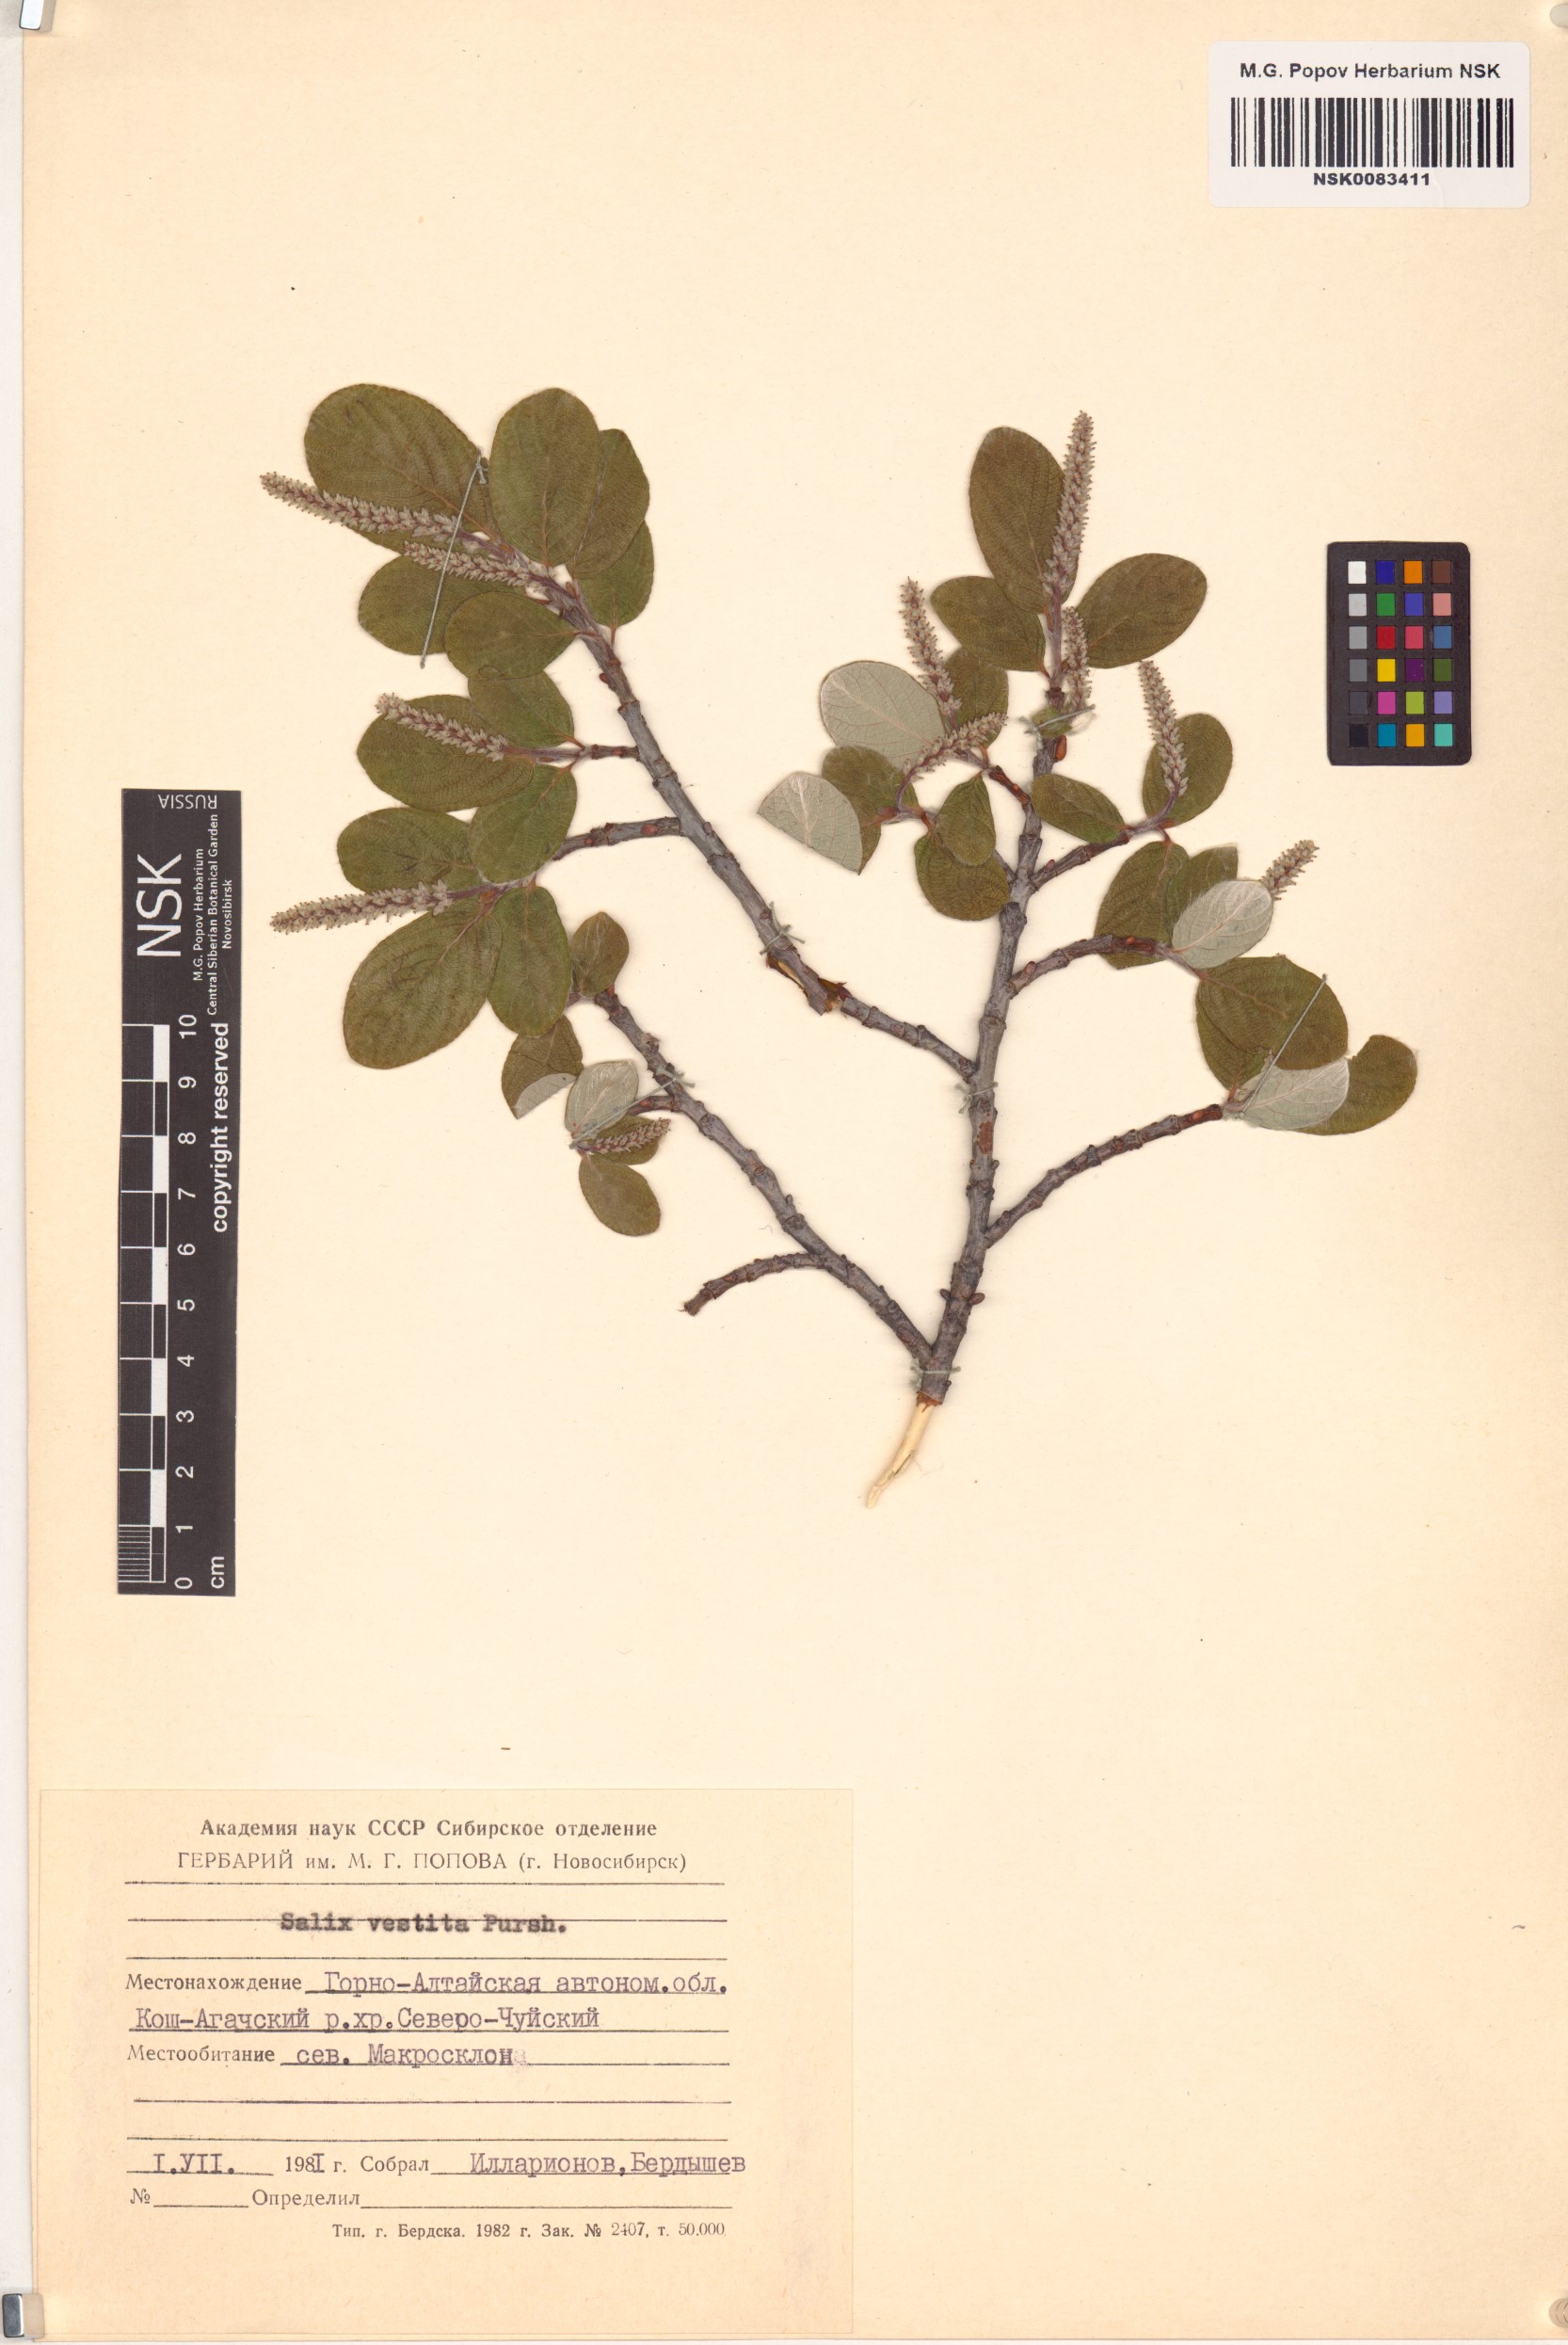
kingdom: Plantae
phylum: Tracheophyta
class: Magnoliopsida
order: Malpighiales
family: Salicaceae
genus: Salix
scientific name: Salix vestita
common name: Hairy willow
